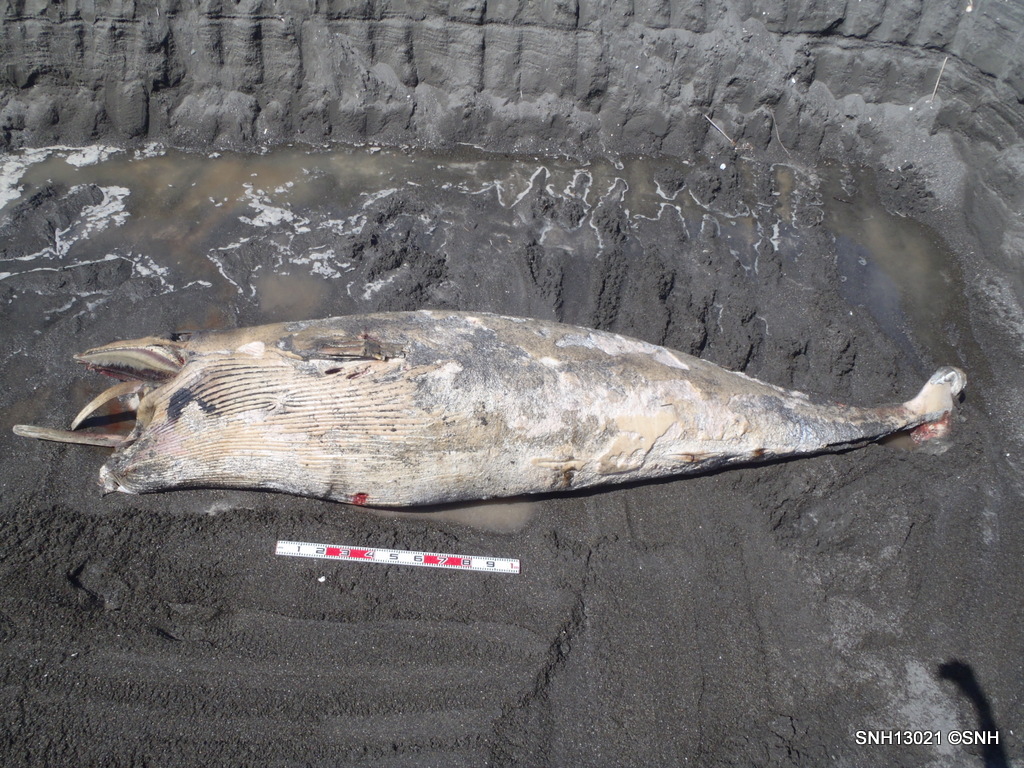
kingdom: Animalia
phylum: Chordata
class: Mammalia
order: Cetacea
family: Balaenopteridae
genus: Balaenoptera
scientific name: Balaenoptera acutorostrata
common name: Minke whale
